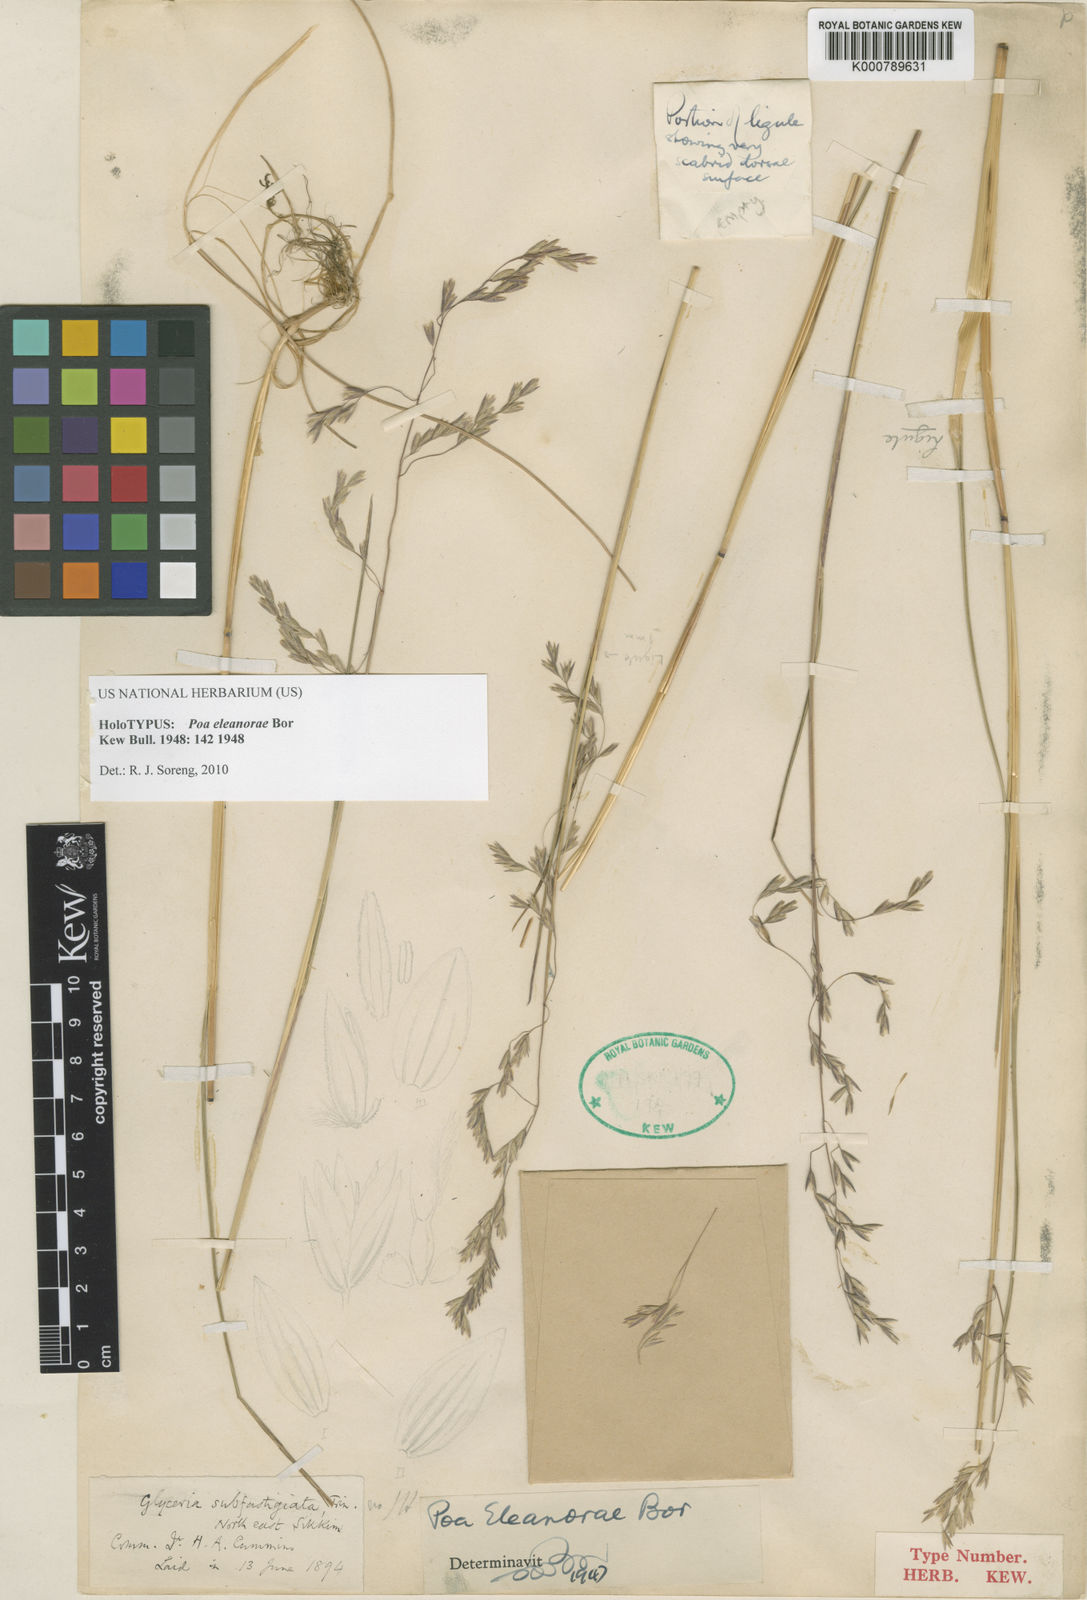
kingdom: Plantae
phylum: Tracheophyta
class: Liliopsida
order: Poales
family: Poaceae
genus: Poa
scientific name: Poa eleanorae
